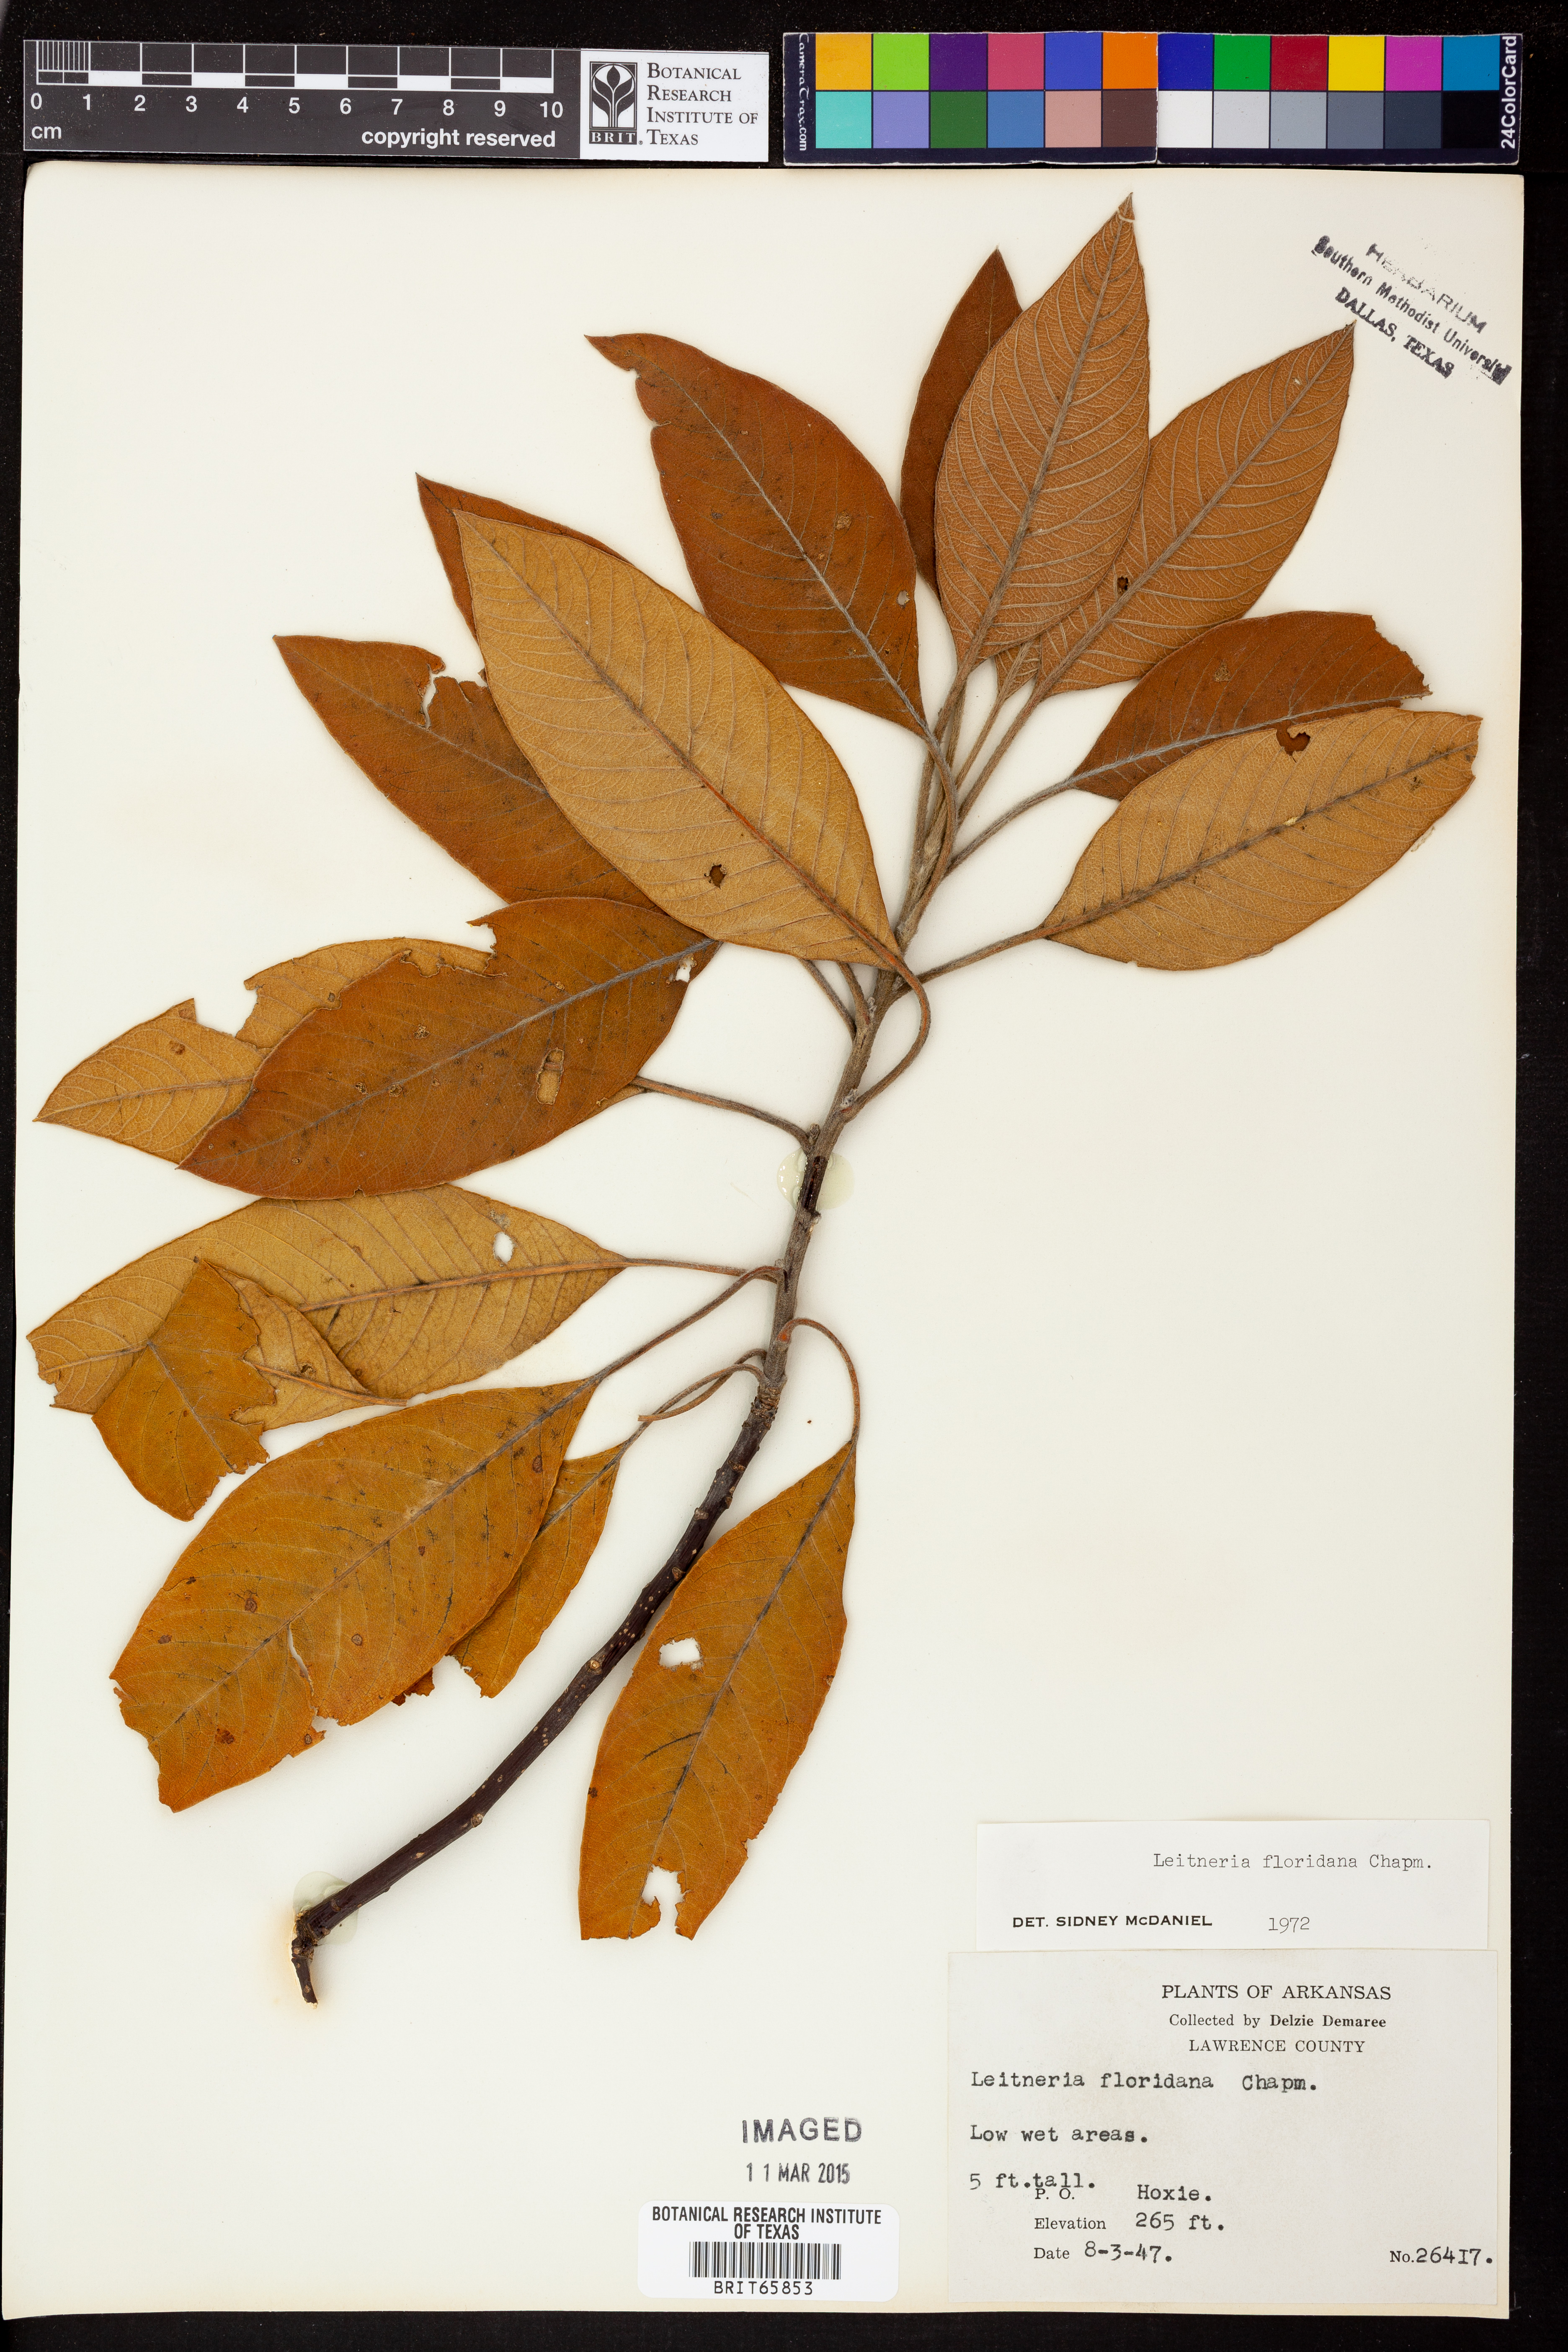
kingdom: Plantae
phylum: Tracheophyta
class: Magnoliopsida
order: Sapindales
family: Simaroubaceae
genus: Leitneria
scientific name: Leitneria floridana
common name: Corkwood
